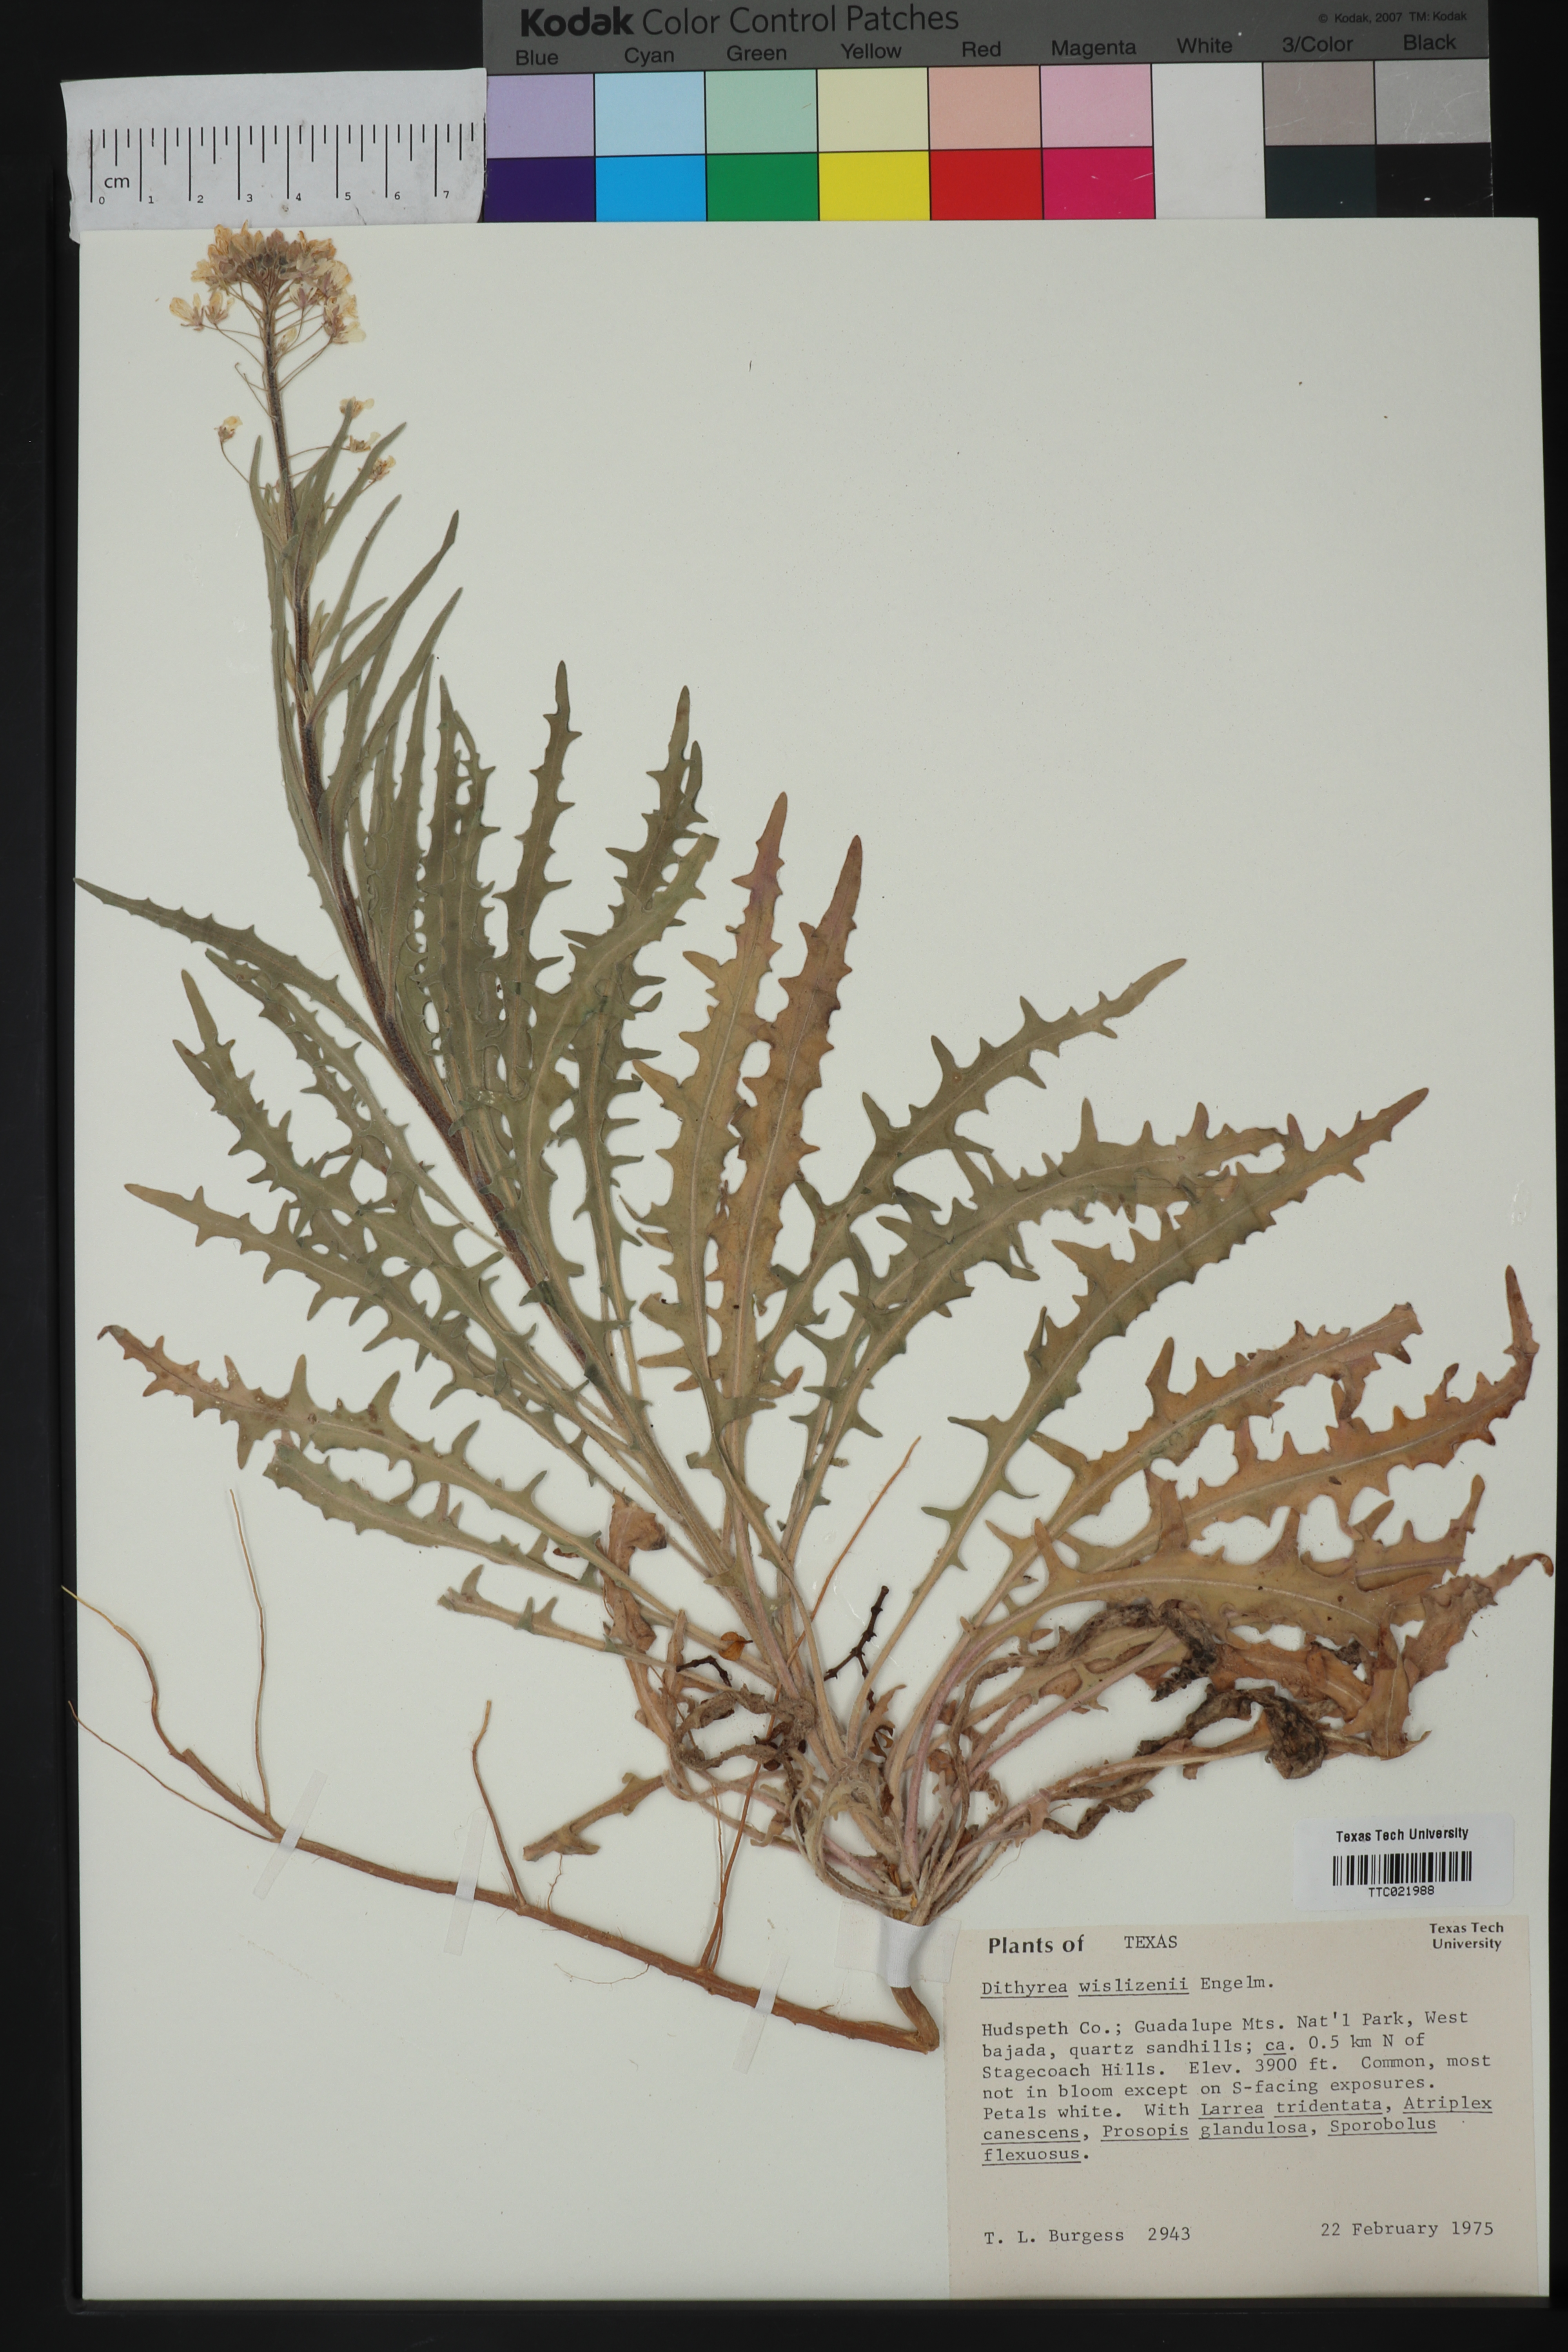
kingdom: Plantae
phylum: Tracheophyta
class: Magnoliopsida
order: Brassicales
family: Brassicaceae
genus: Dimorphocarpa
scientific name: Dimorphocarpa wislizenii
